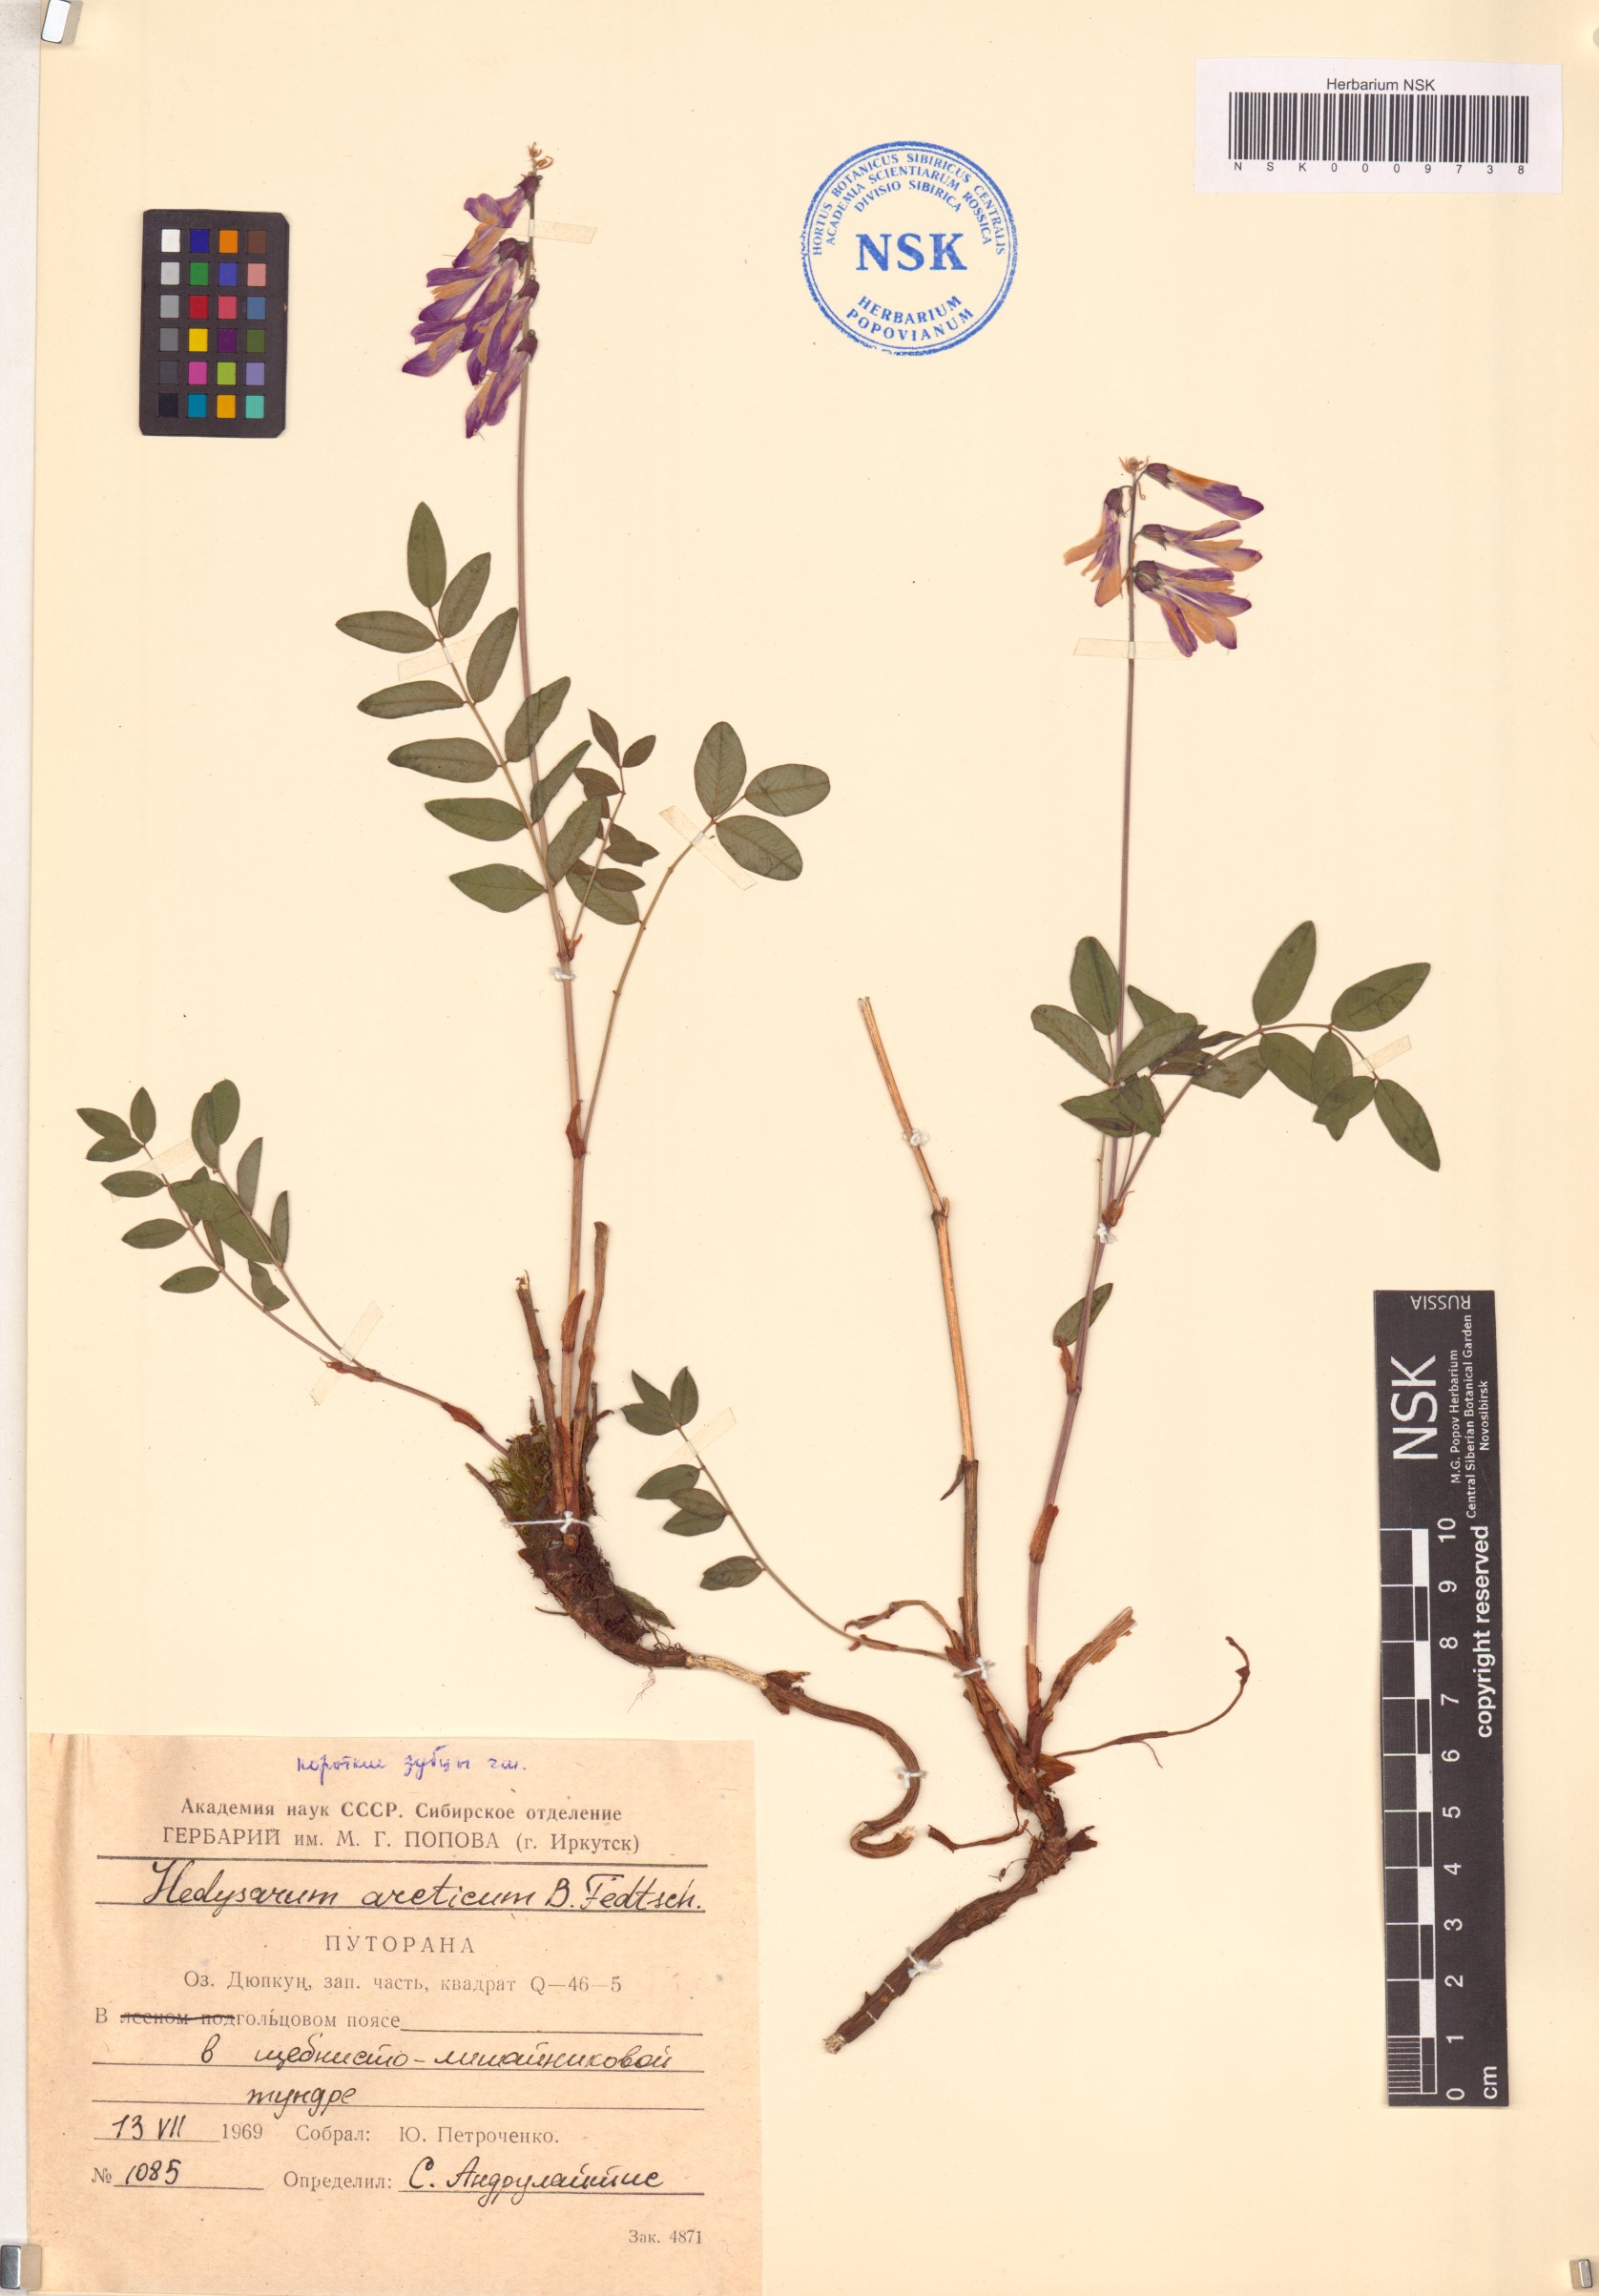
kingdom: Plantae
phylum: Tracheophyta
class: Magnoliopsida
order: Fabales
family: Fabaceae
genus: Hedysarum
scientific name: Hedysarum hedysaroides
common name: Alpine french-honeysuckle
